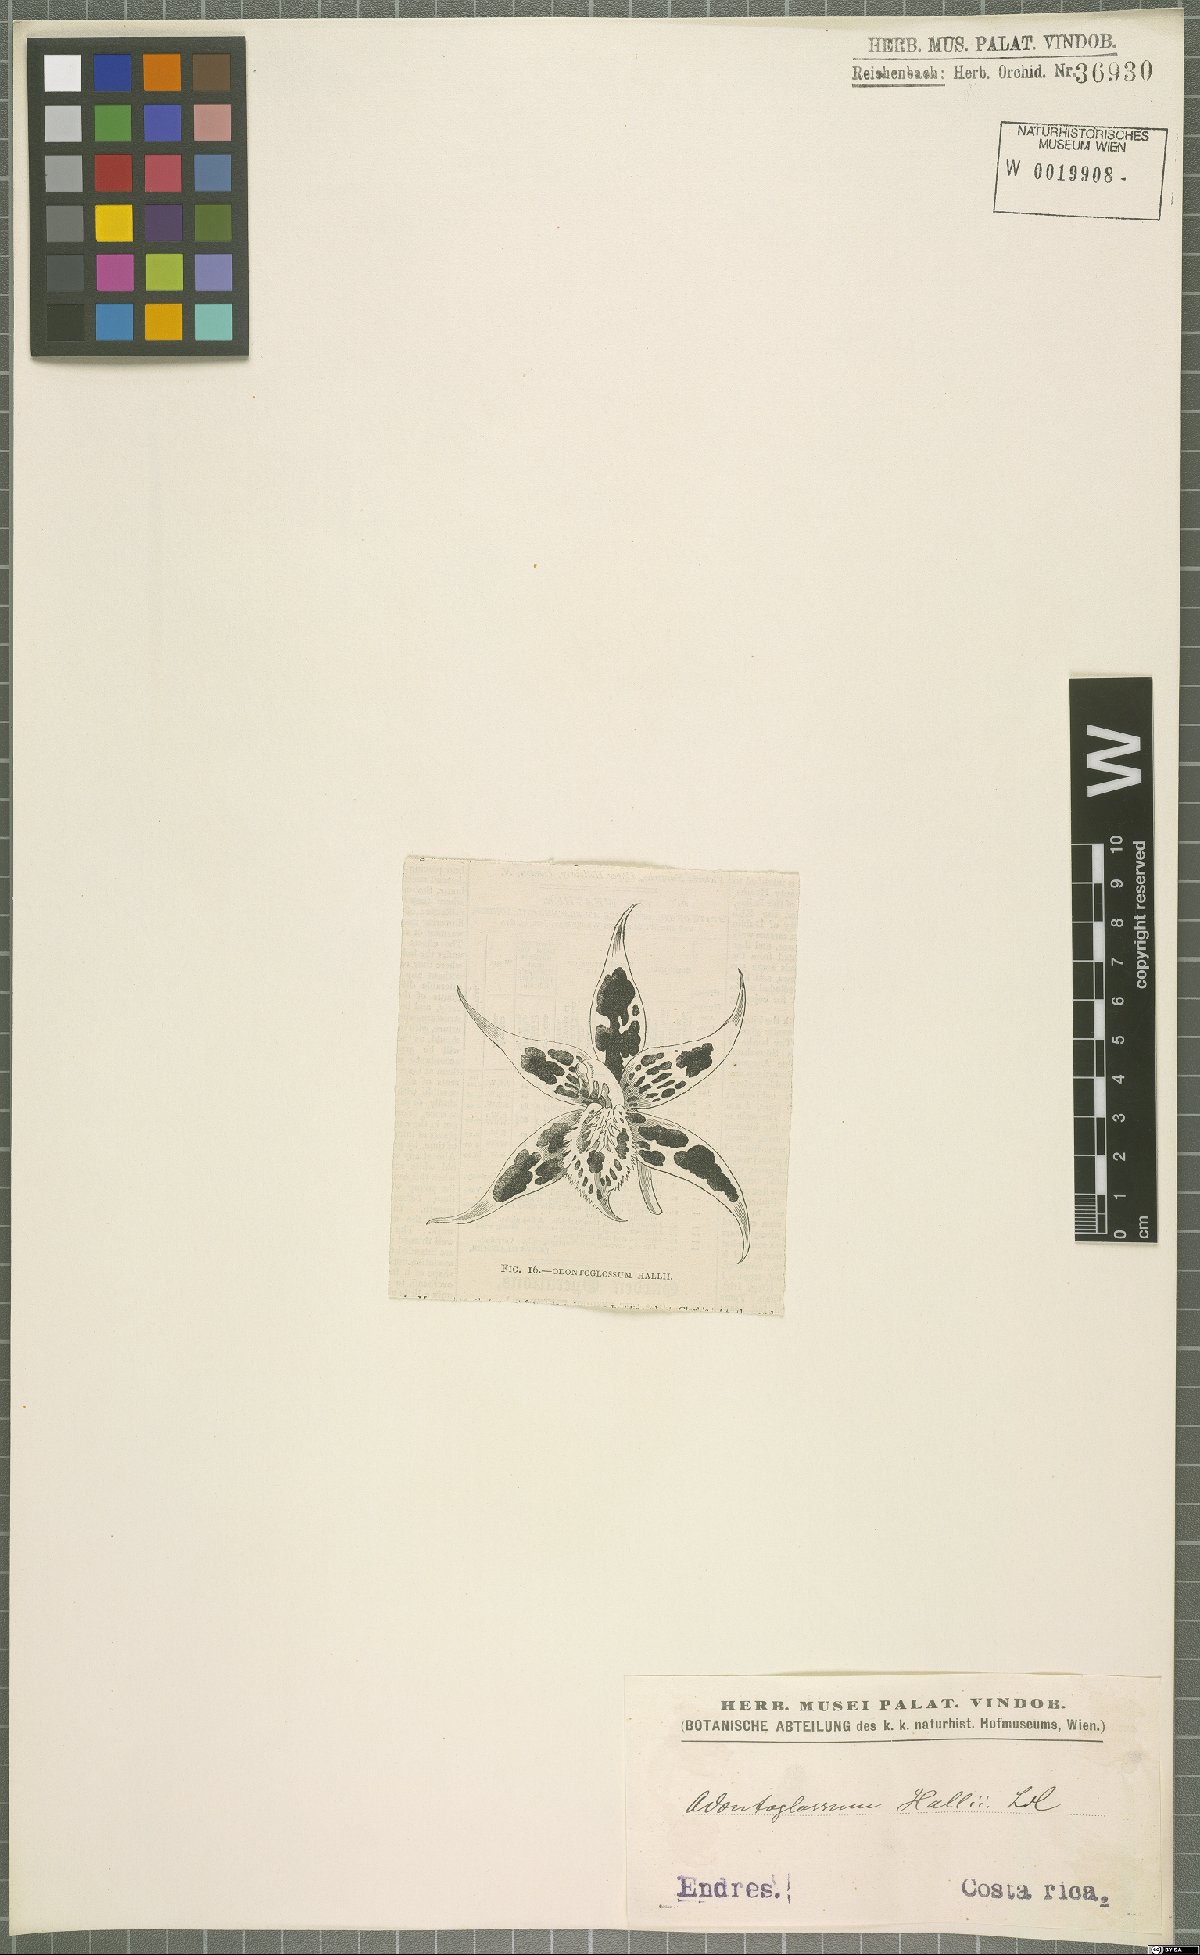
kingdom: Plantae
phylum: Tracheophyta
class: Liliopsida
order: Asparagales
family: Orchidaceae
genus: Oncidium
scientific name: Oncidium hallii
